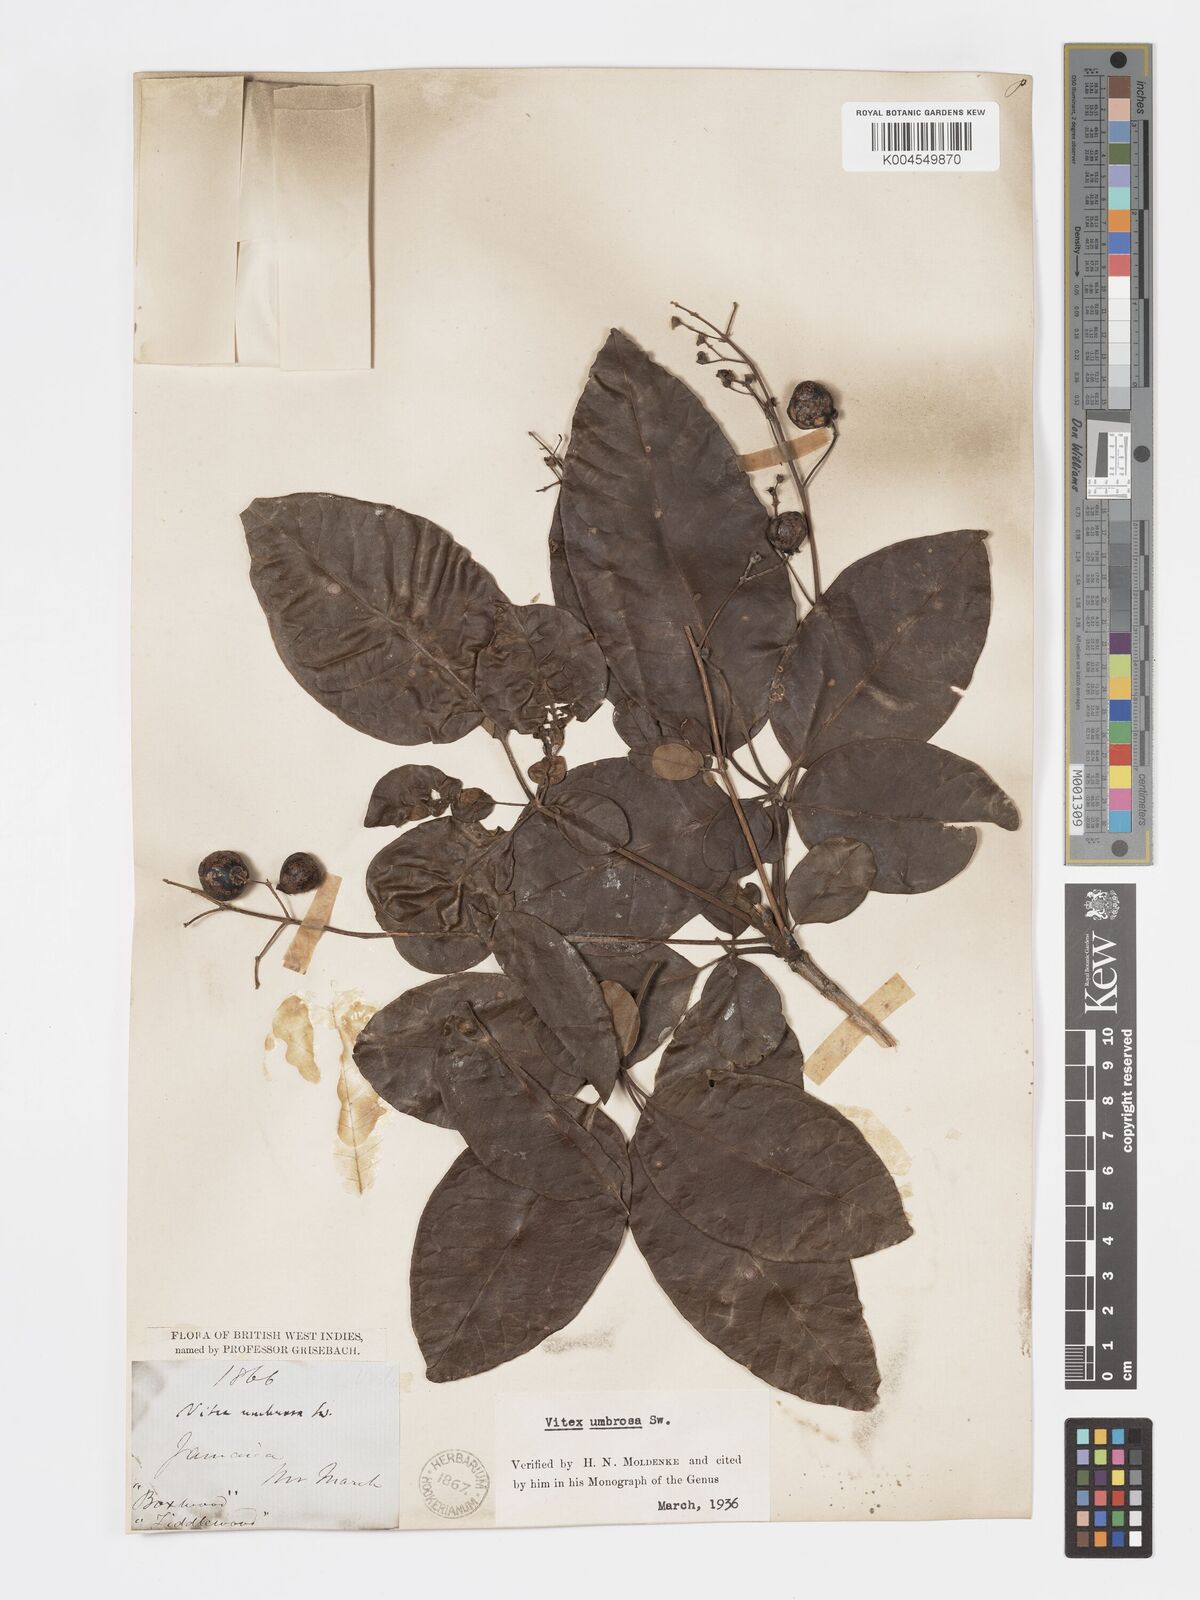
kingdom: Plantae
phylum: Tracheophyta
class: Magnoliopsida
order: Lamiales
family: Lamiaceae
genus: Vitex
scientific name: Vitex umbrosa
